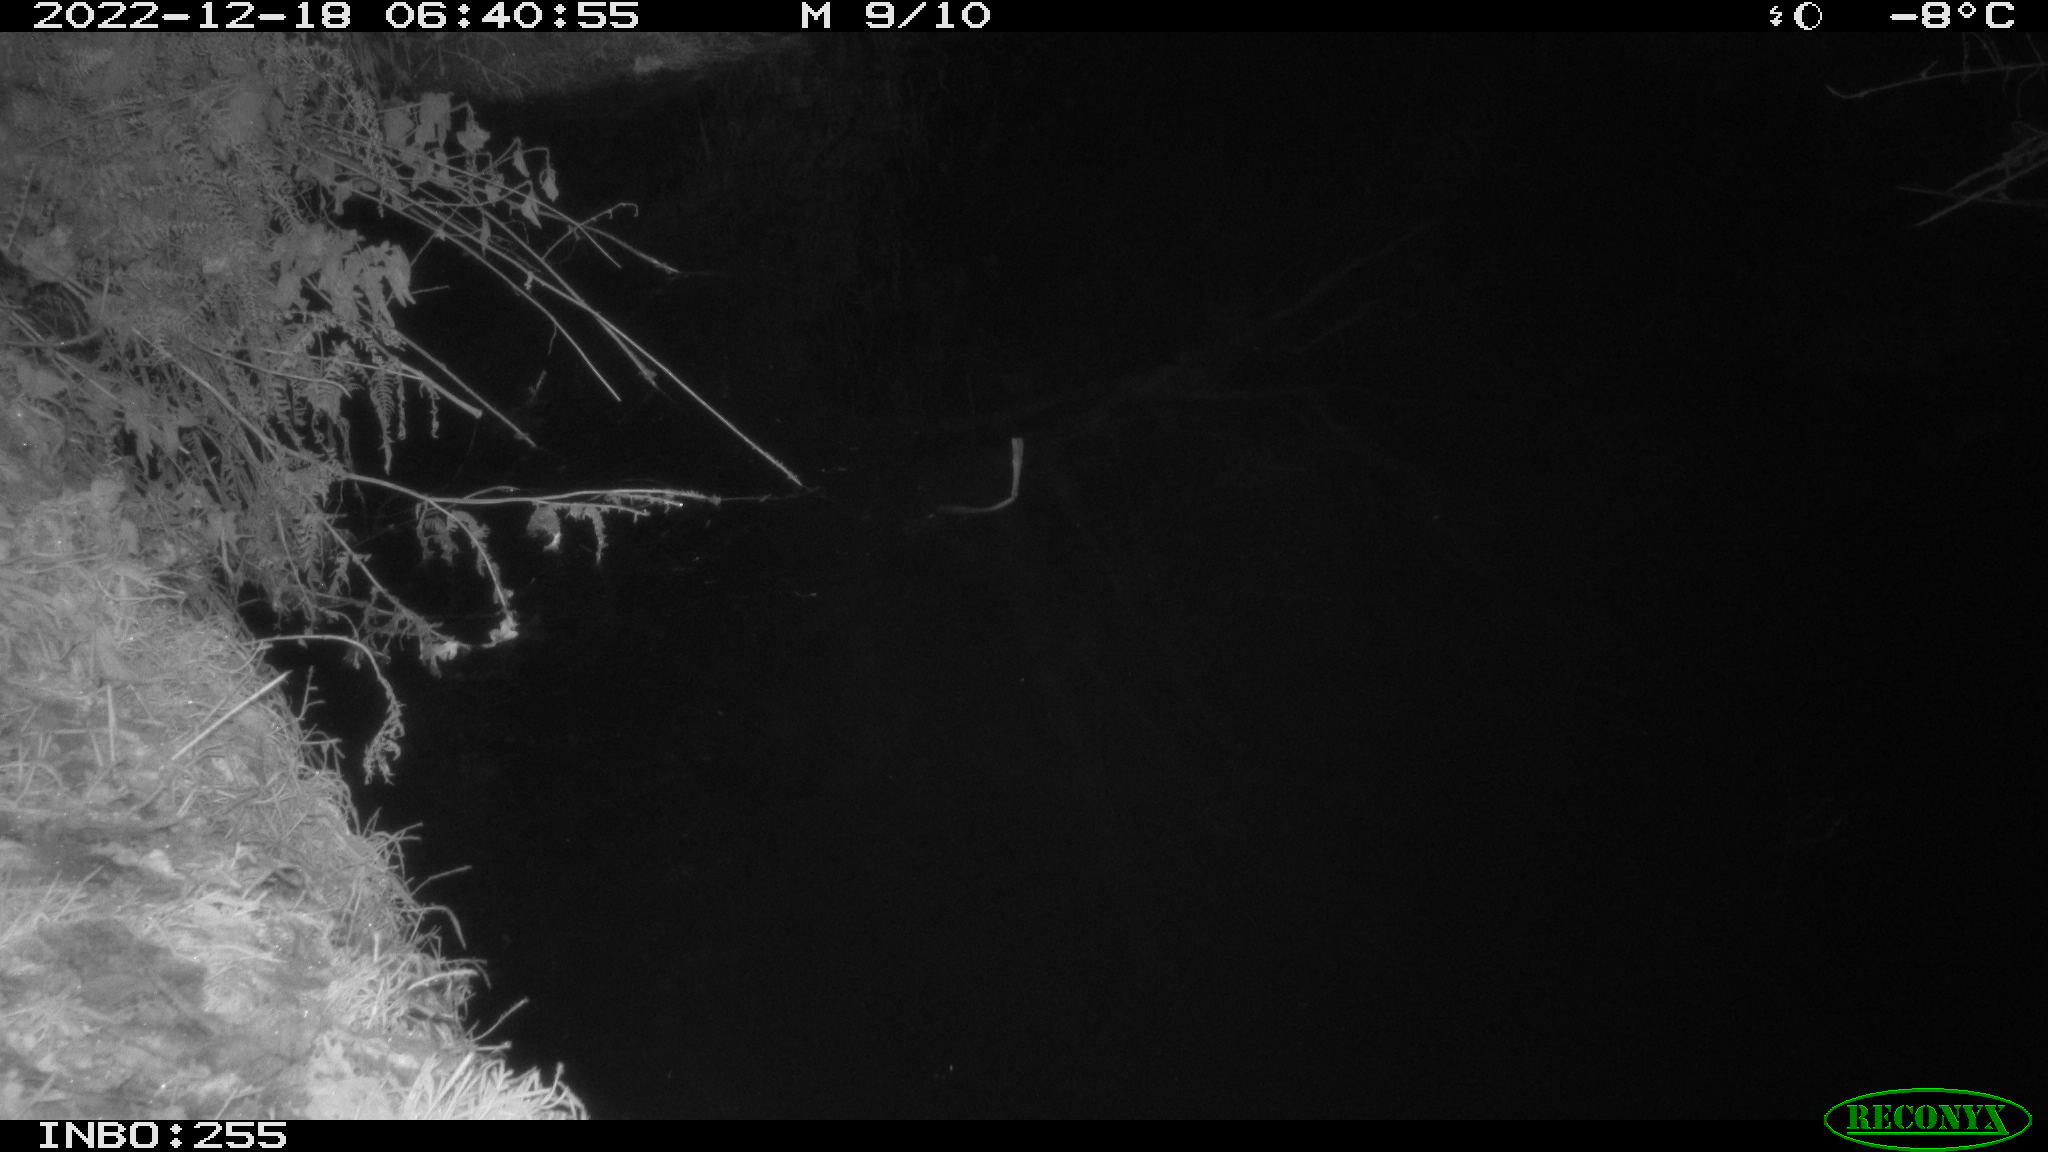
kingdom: Animalia
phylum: Chordata
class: Aves
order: Anseriformes
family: Anatidae
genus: Anas
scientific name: Anas
